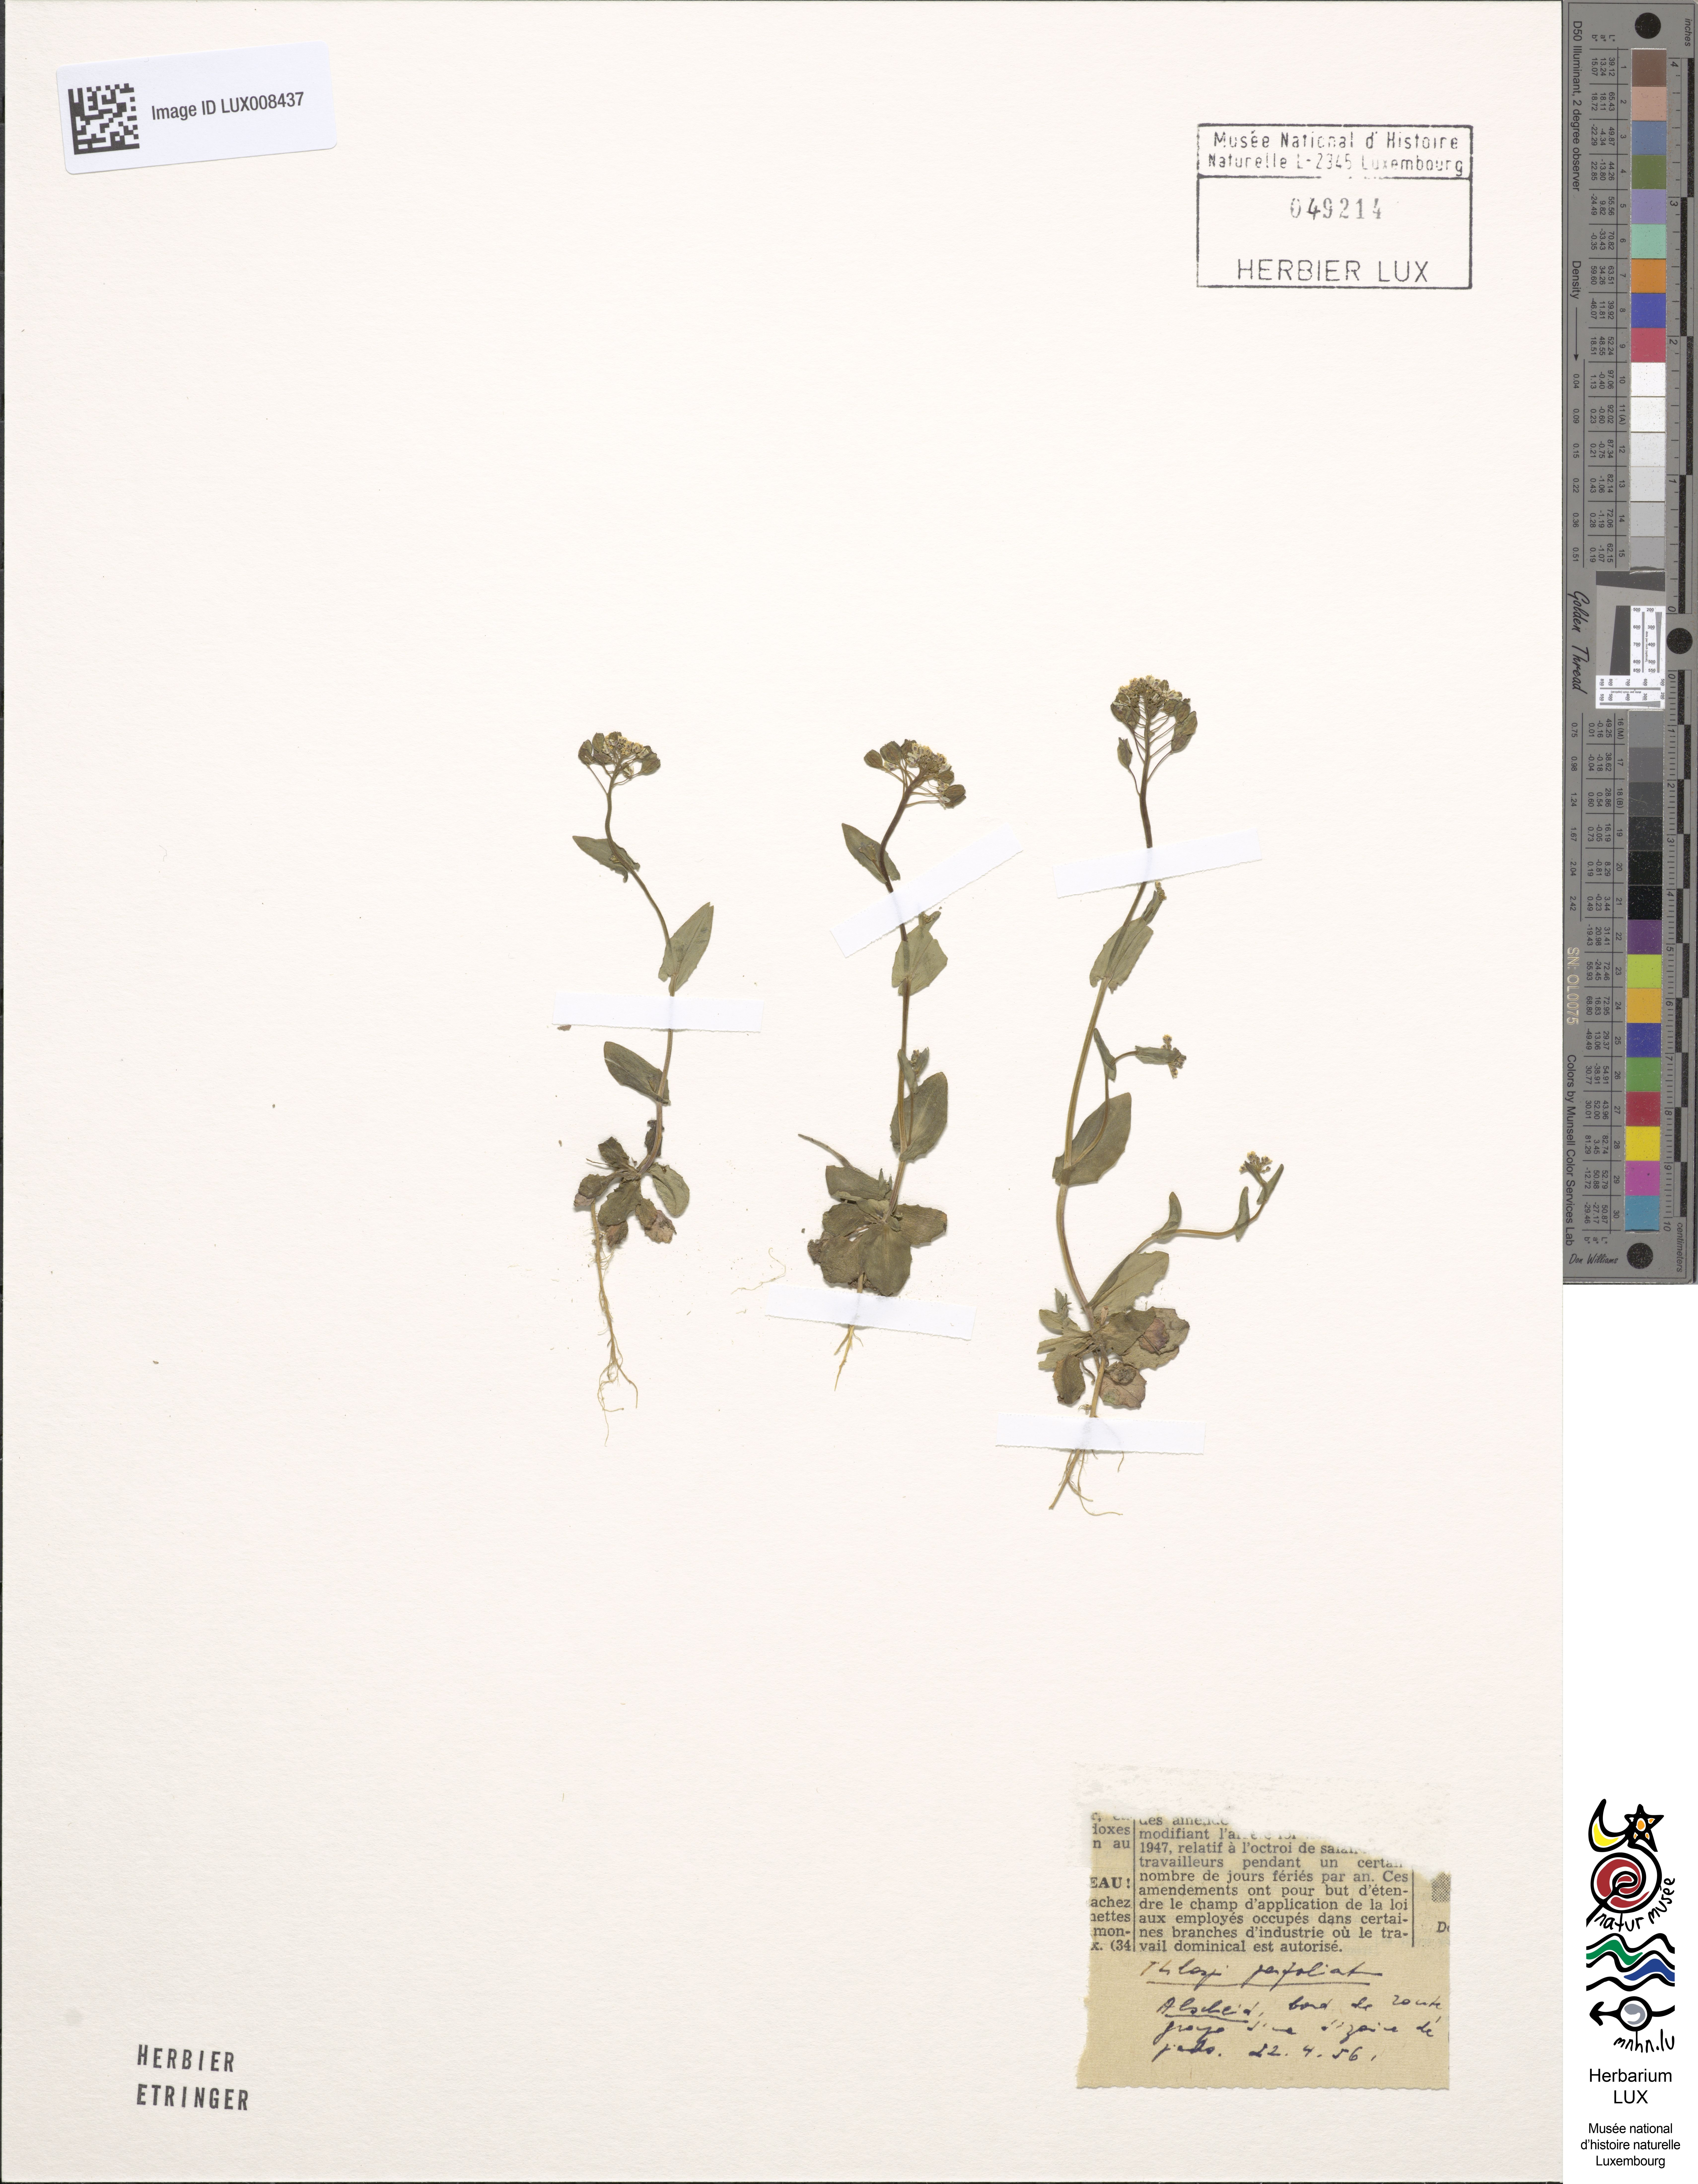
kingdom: Plantae
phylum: Tracheophyta
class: Magnoliopsida
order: Brassicales
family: Brassicaceae
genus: Noccaea
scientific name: Noccaea perfoliata
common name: Perfoliate pennycress
